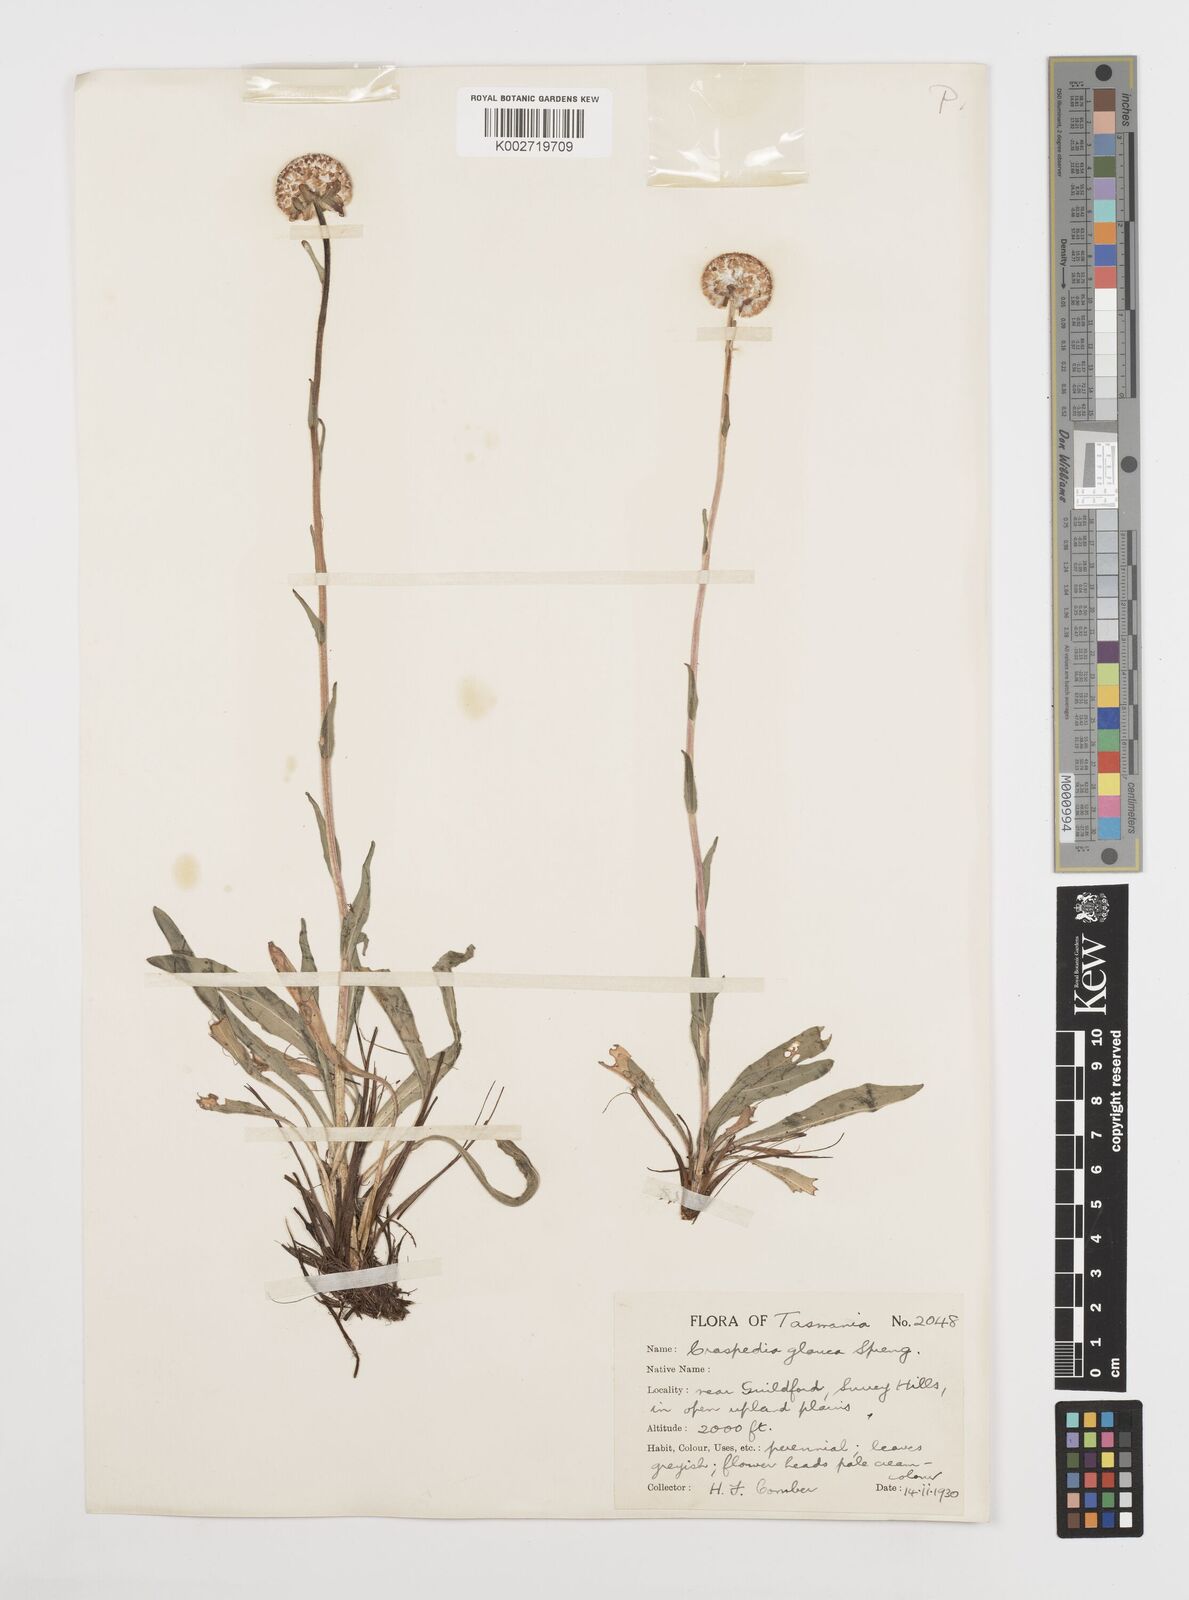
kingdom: Plantae
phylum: Tracheophyta
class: Magnoliopsida
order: Asterales
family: Asteraceae
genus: Craspedia
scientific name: Craspedia glauca
